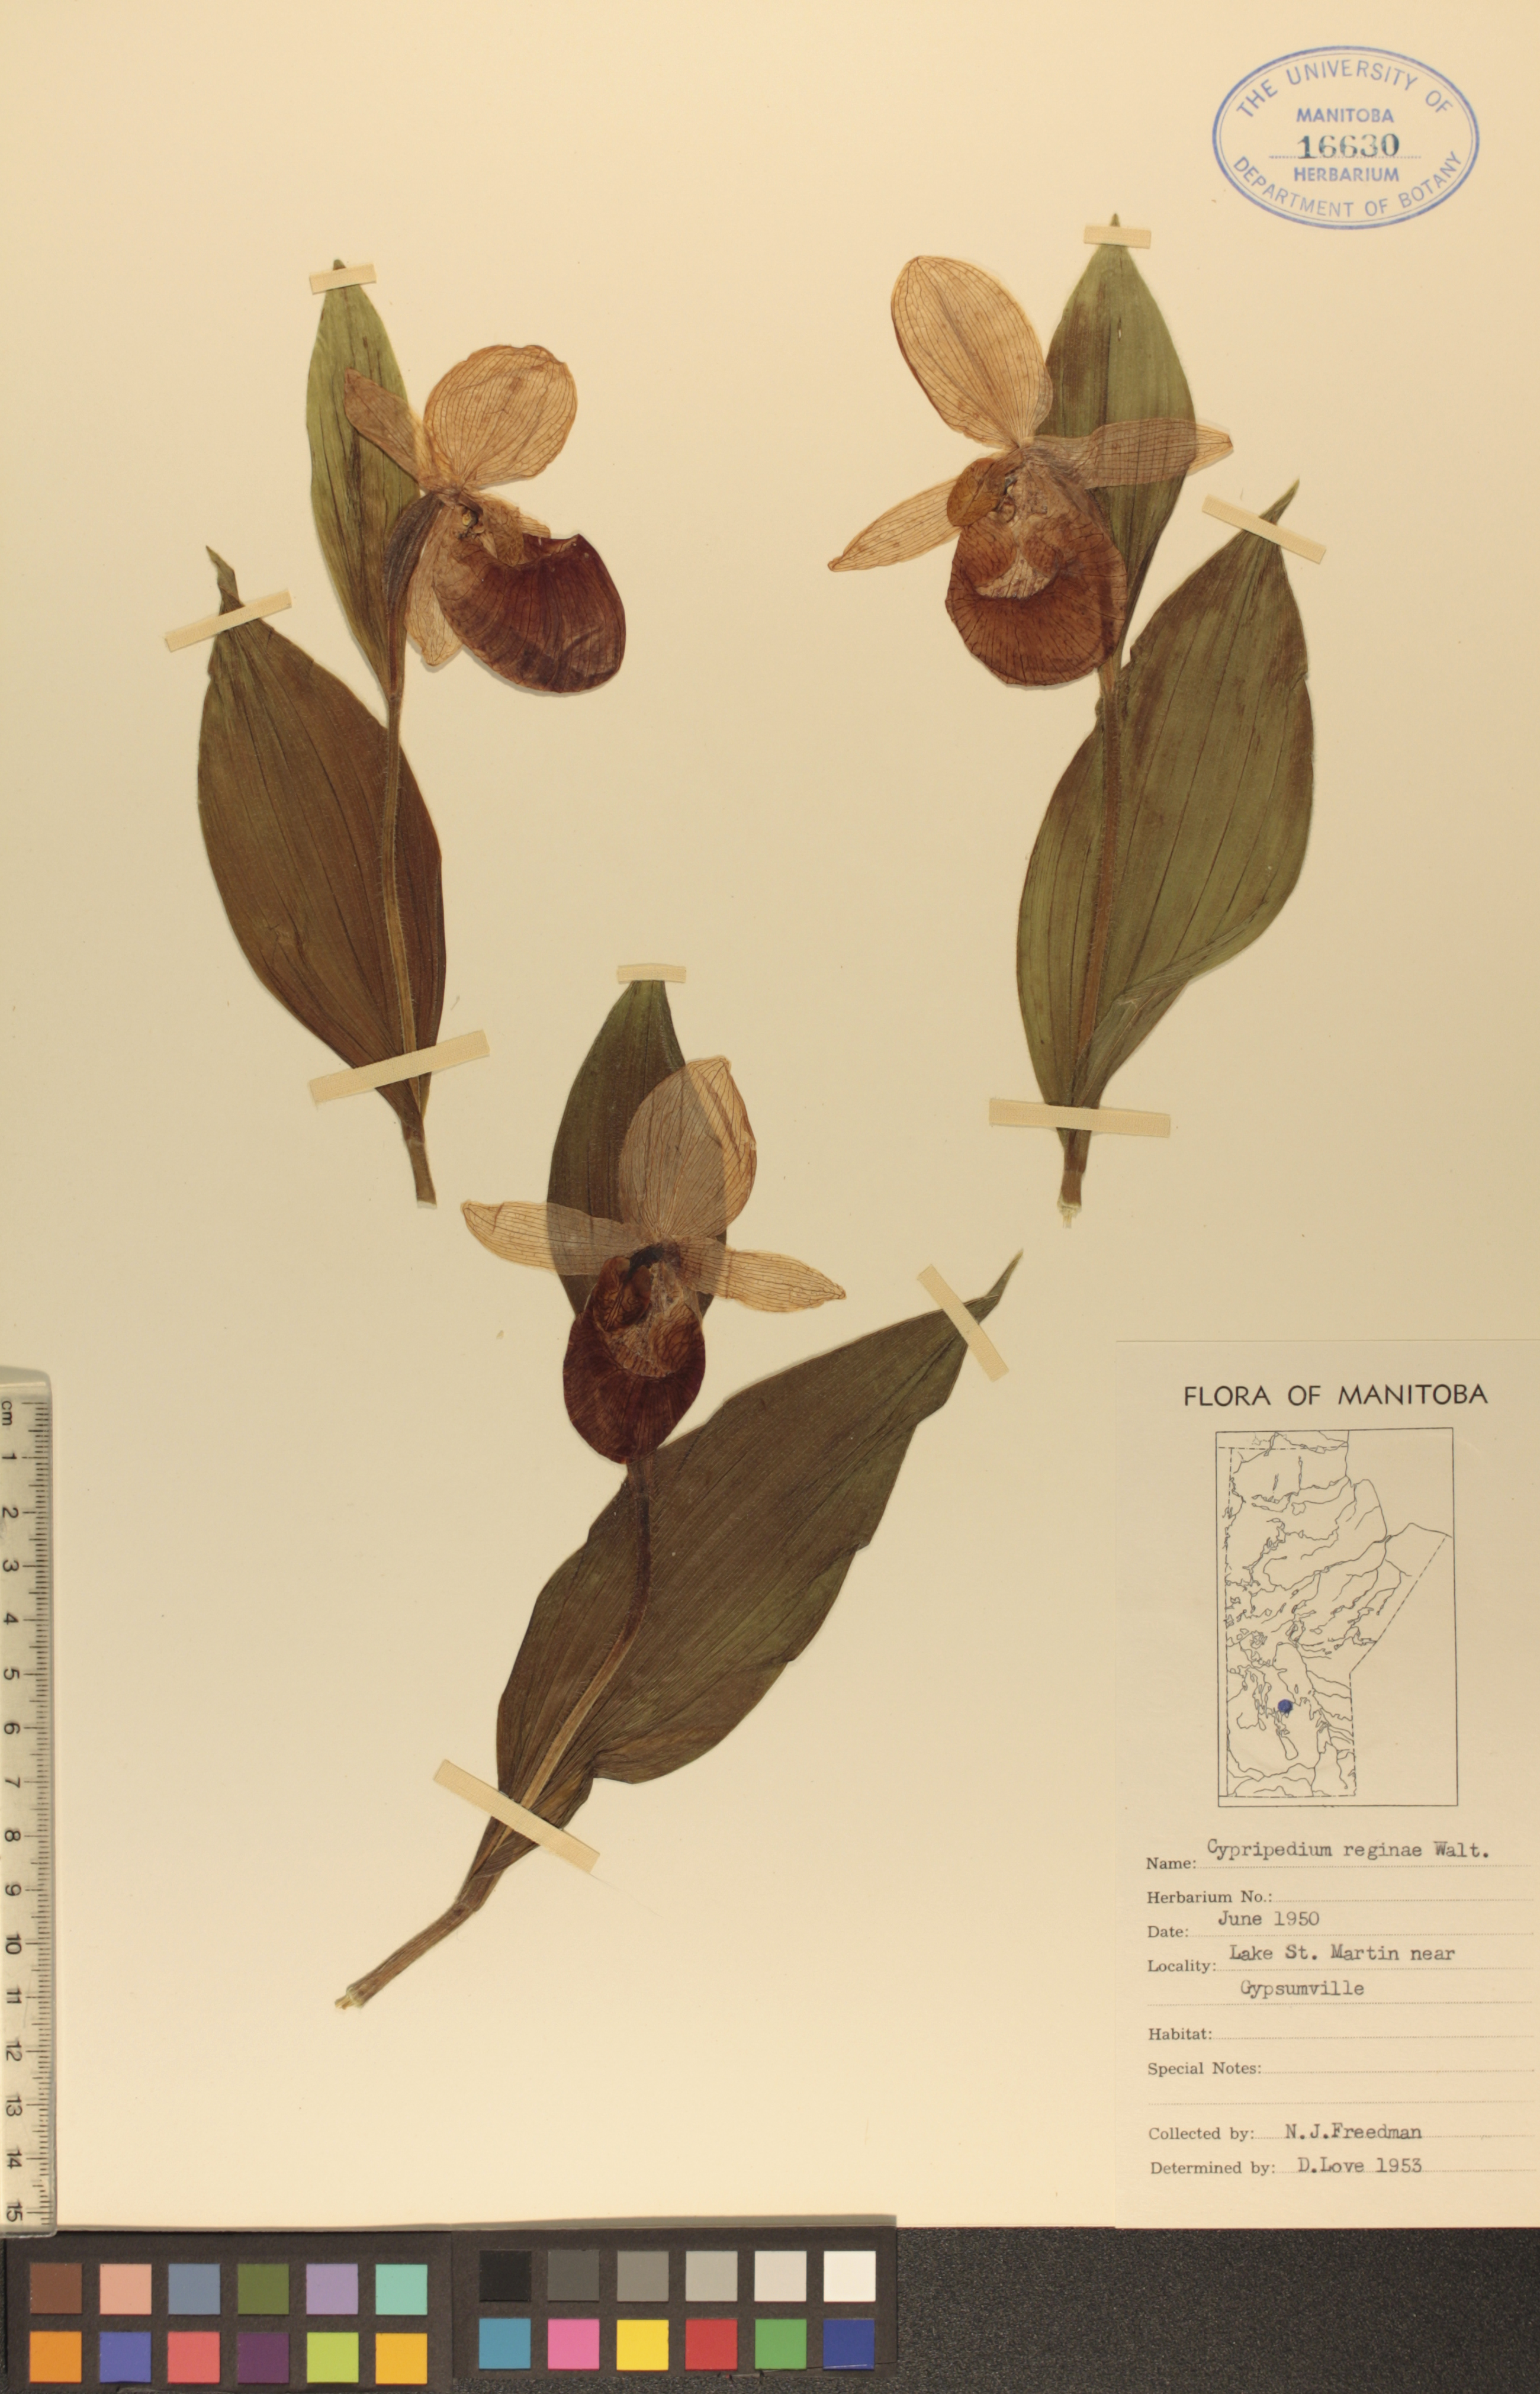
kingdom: Plantae
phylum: Tracheophyta
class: Liliopsida
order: Asparagales
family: Orchidaceae
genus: Cypripedium
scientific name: Cypripedium reginae
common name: Queen lady's-slipper
